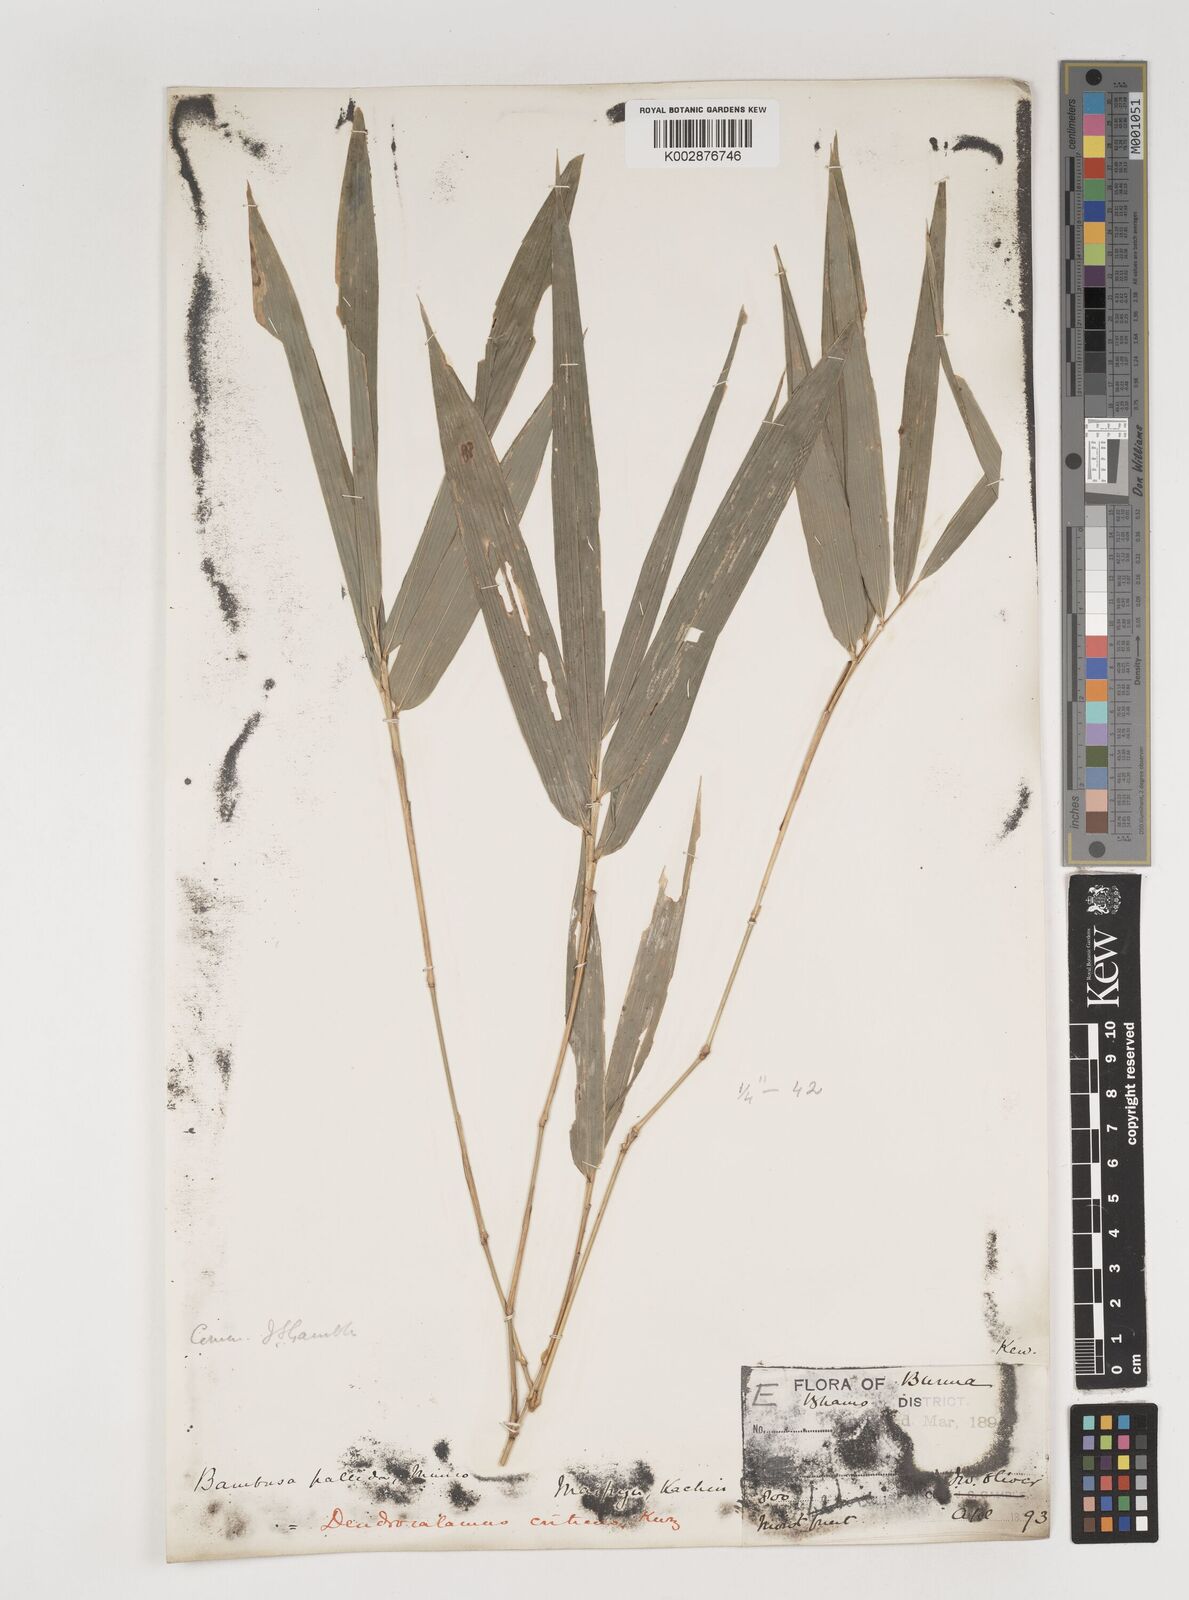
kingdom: Plantae
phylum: Tracheophyta
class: Liliopsida
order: Poales
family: Poaceae
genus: Bambusa
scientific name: Bambusa pallida
